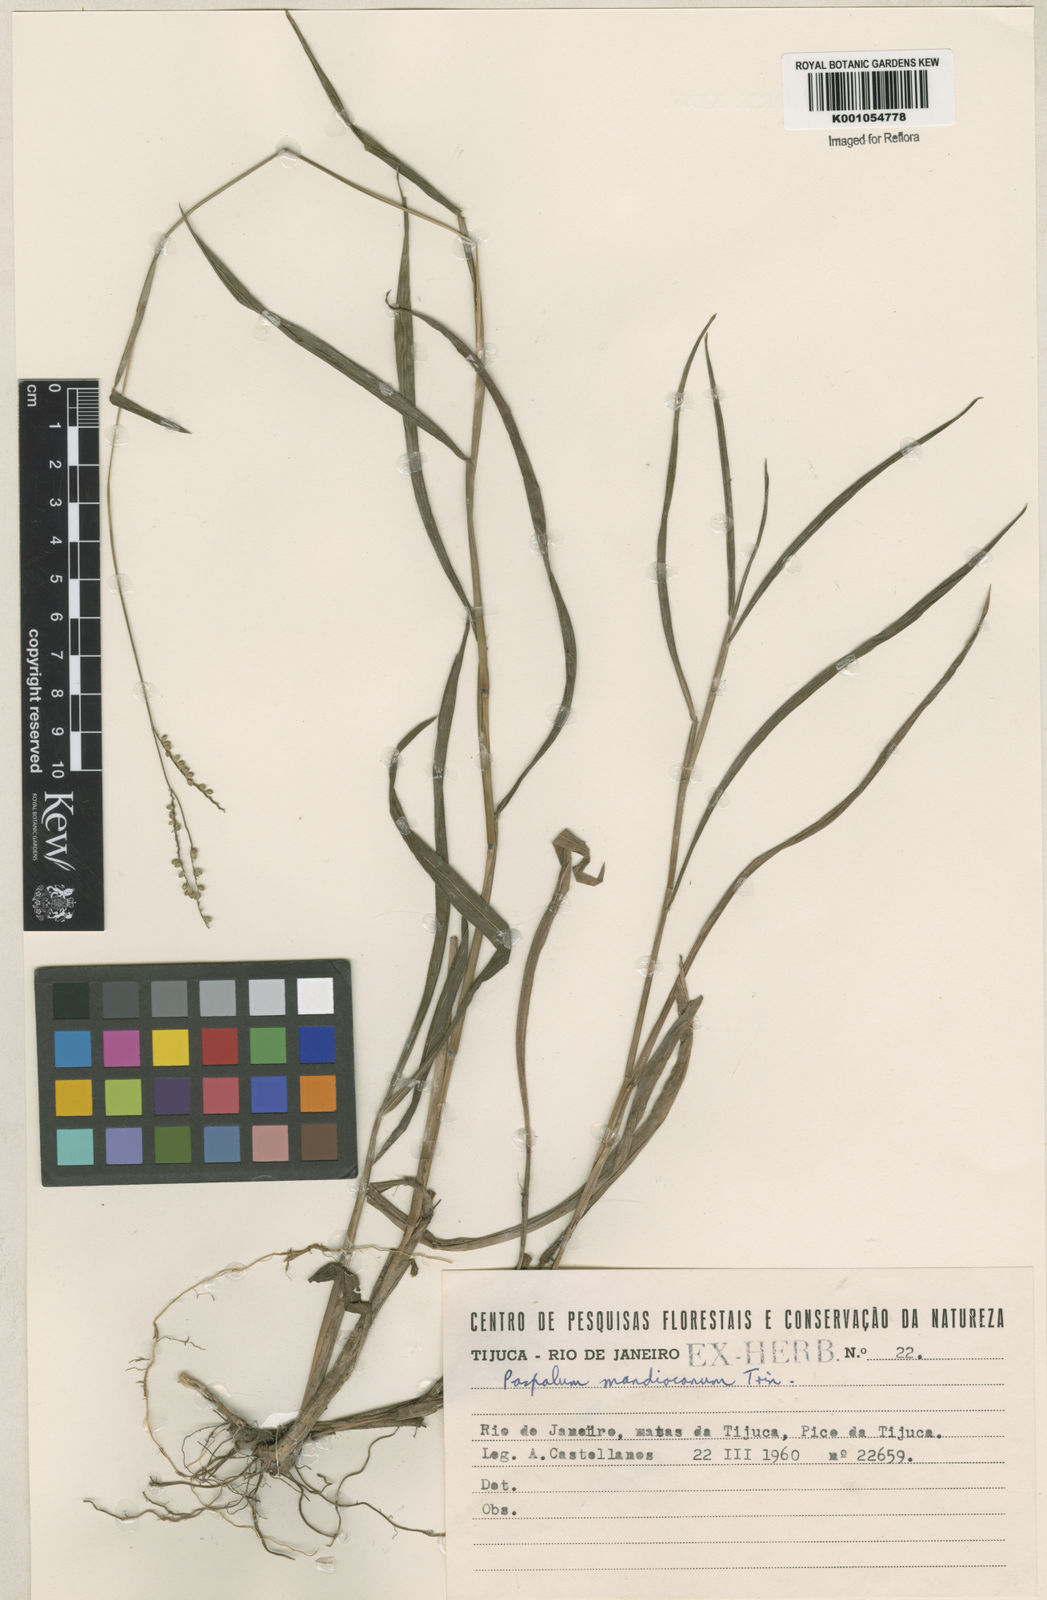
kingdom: Plantae
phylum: Tracheophyta
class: Liliopsida
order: Poales
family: Poaceae
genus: Paspalum
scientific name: Paspalum mandiocanum
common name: Paspalum
